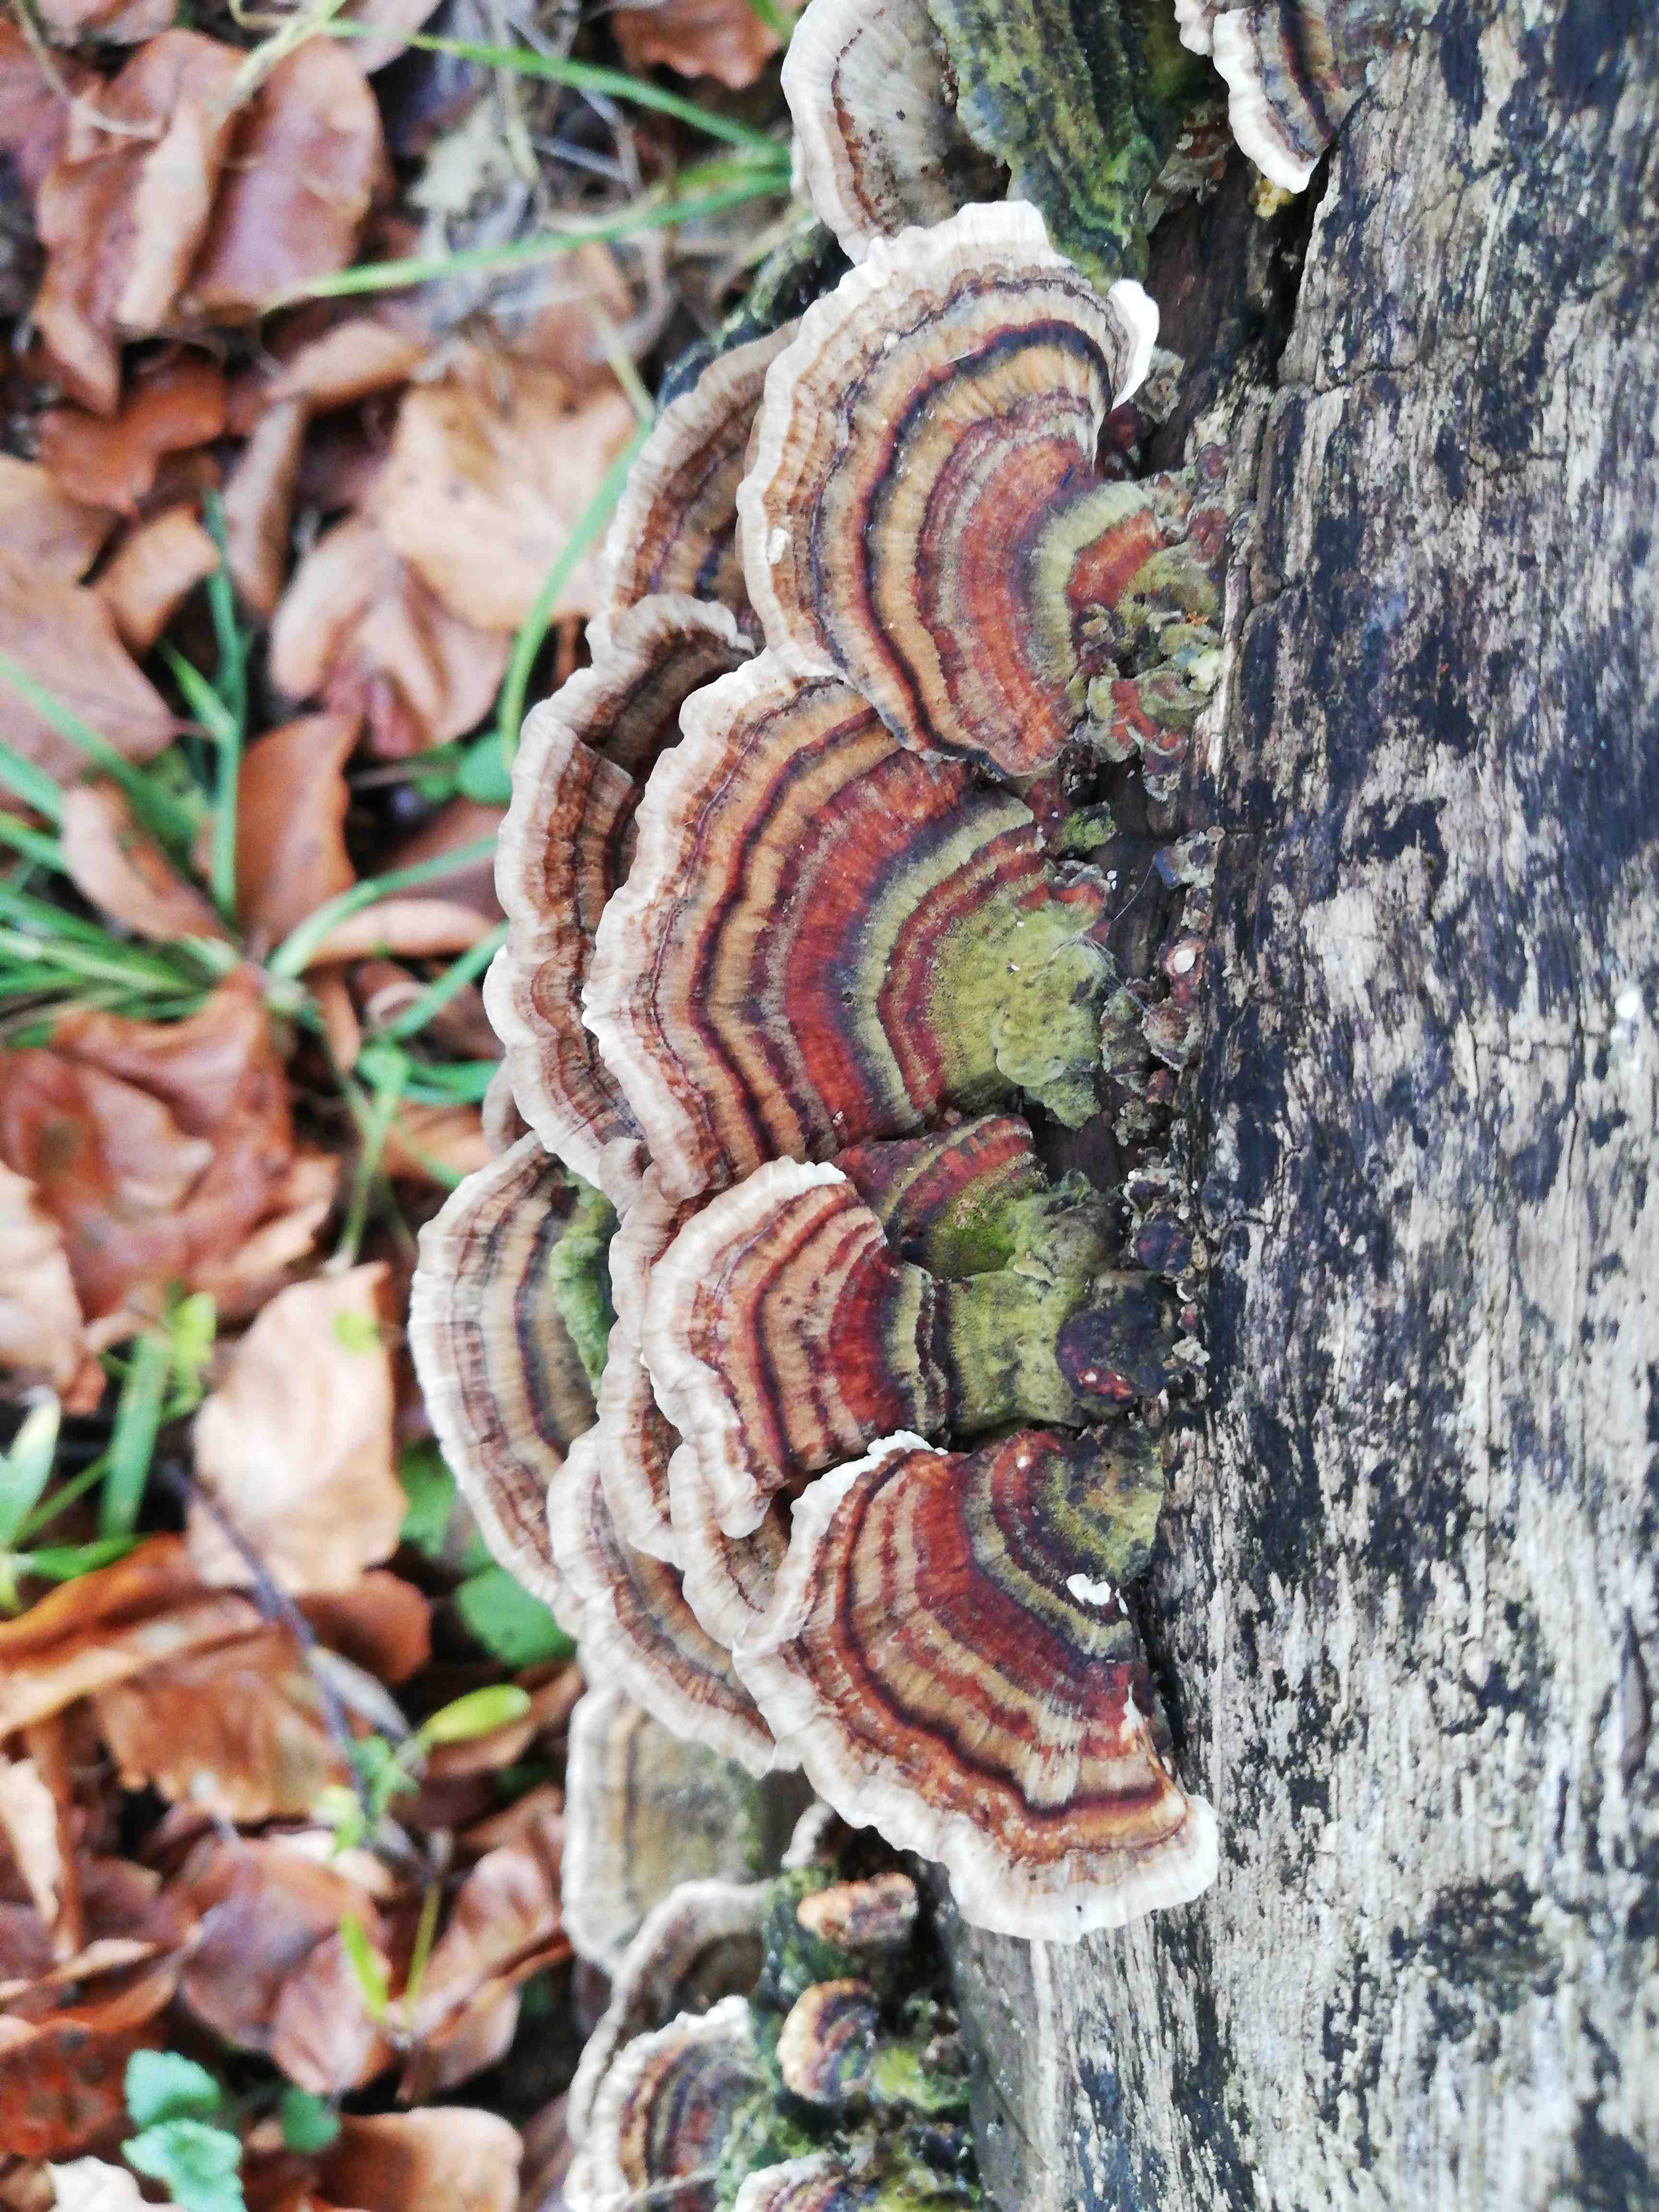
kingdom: Fungi
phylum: Basidiomycota
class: Agaricomycetes
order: Polyporales
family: Polyporaceae
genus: Trametes
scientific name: Trametes versicolor
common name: broget læderporesvamp
